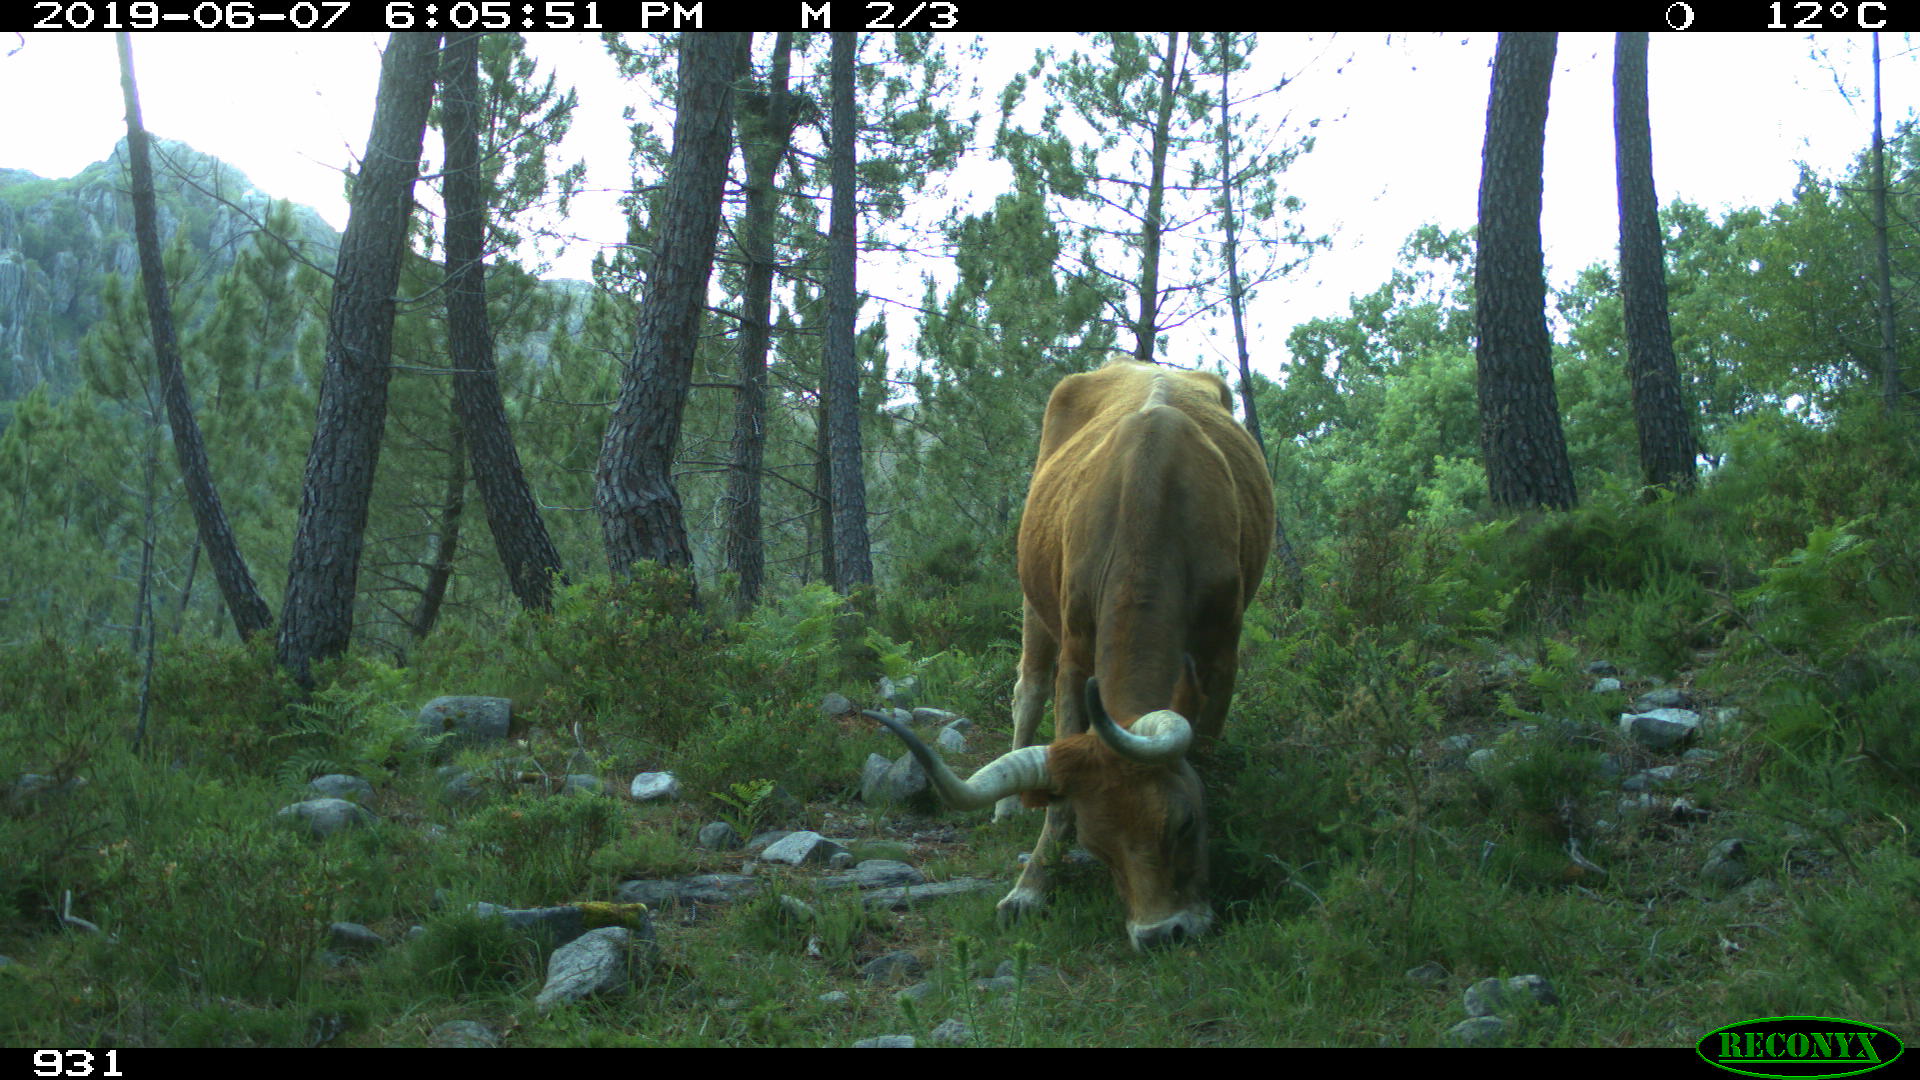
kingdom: Animalia
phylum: Chordata
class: Mammalia
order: Artiodactyla
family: Bovidae
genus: Bos
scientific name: Bos taurus
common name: Domesticated cattle
